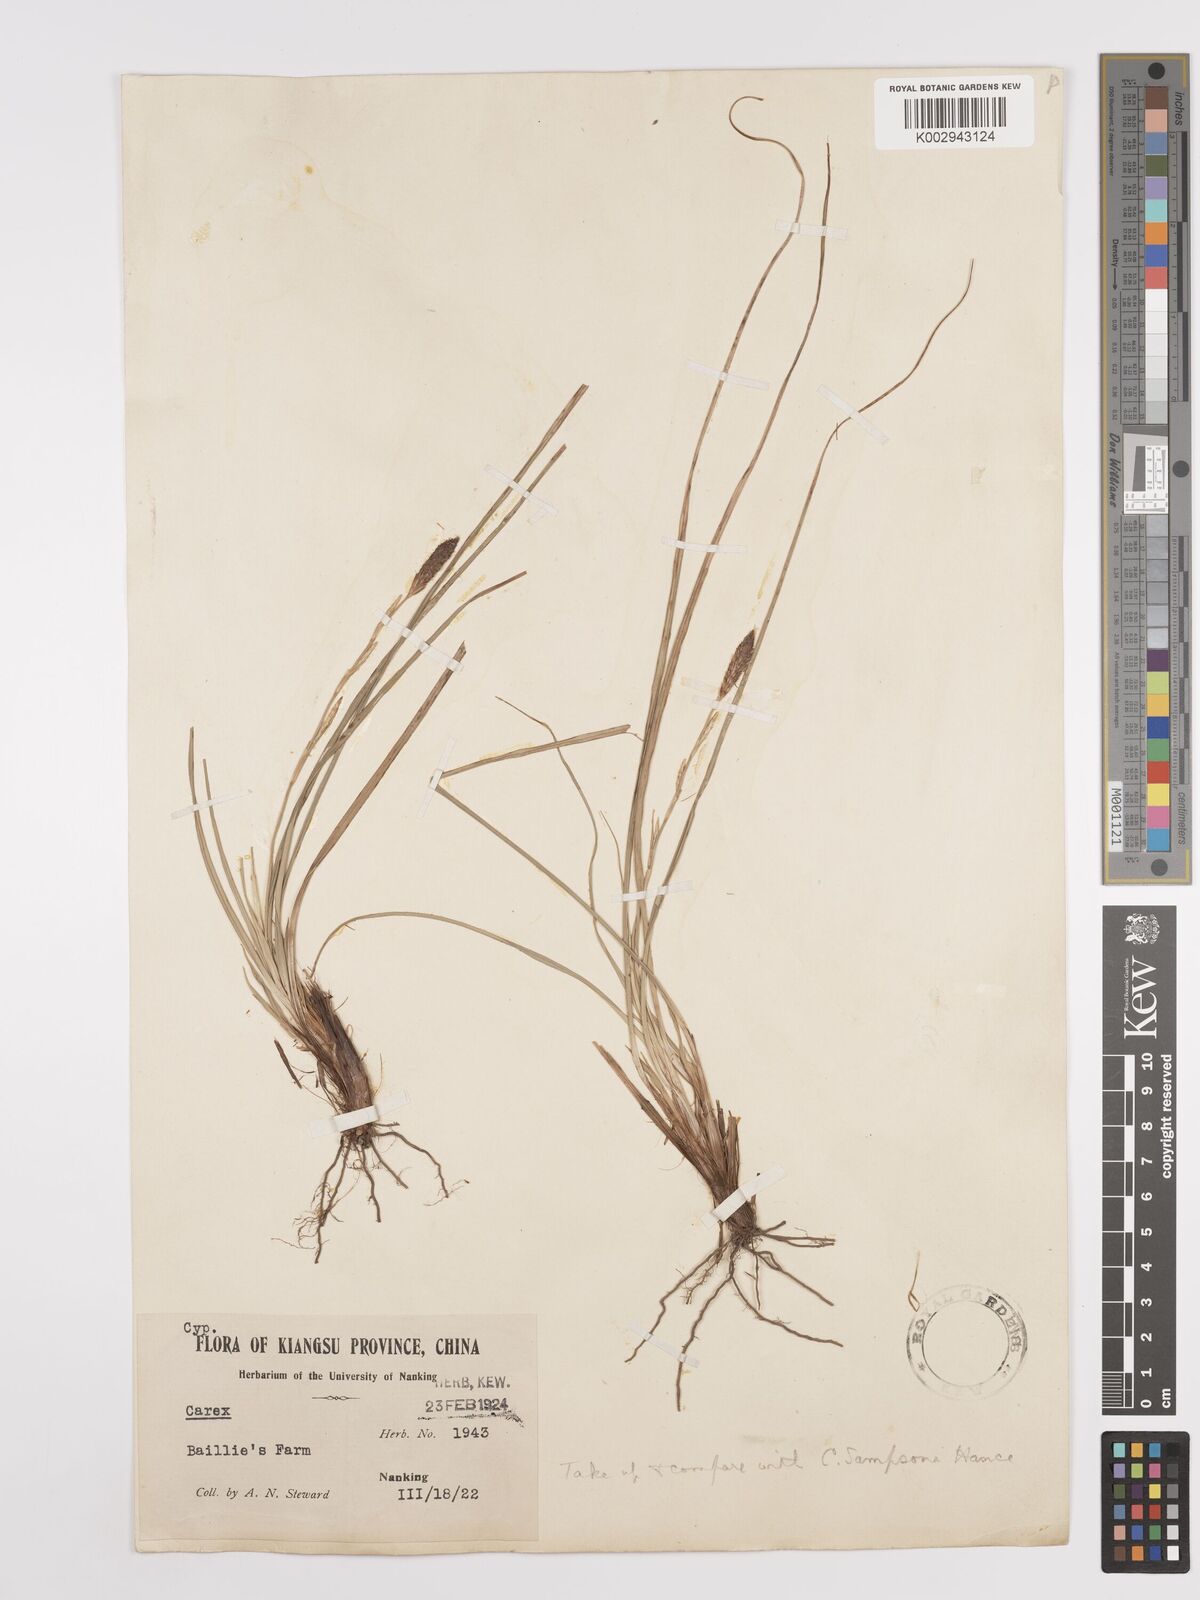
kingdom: Plantae
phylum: Tracheophyta
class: Liliopsida
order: Poales
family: Cyperaceae
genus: Carex
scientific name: Carex
